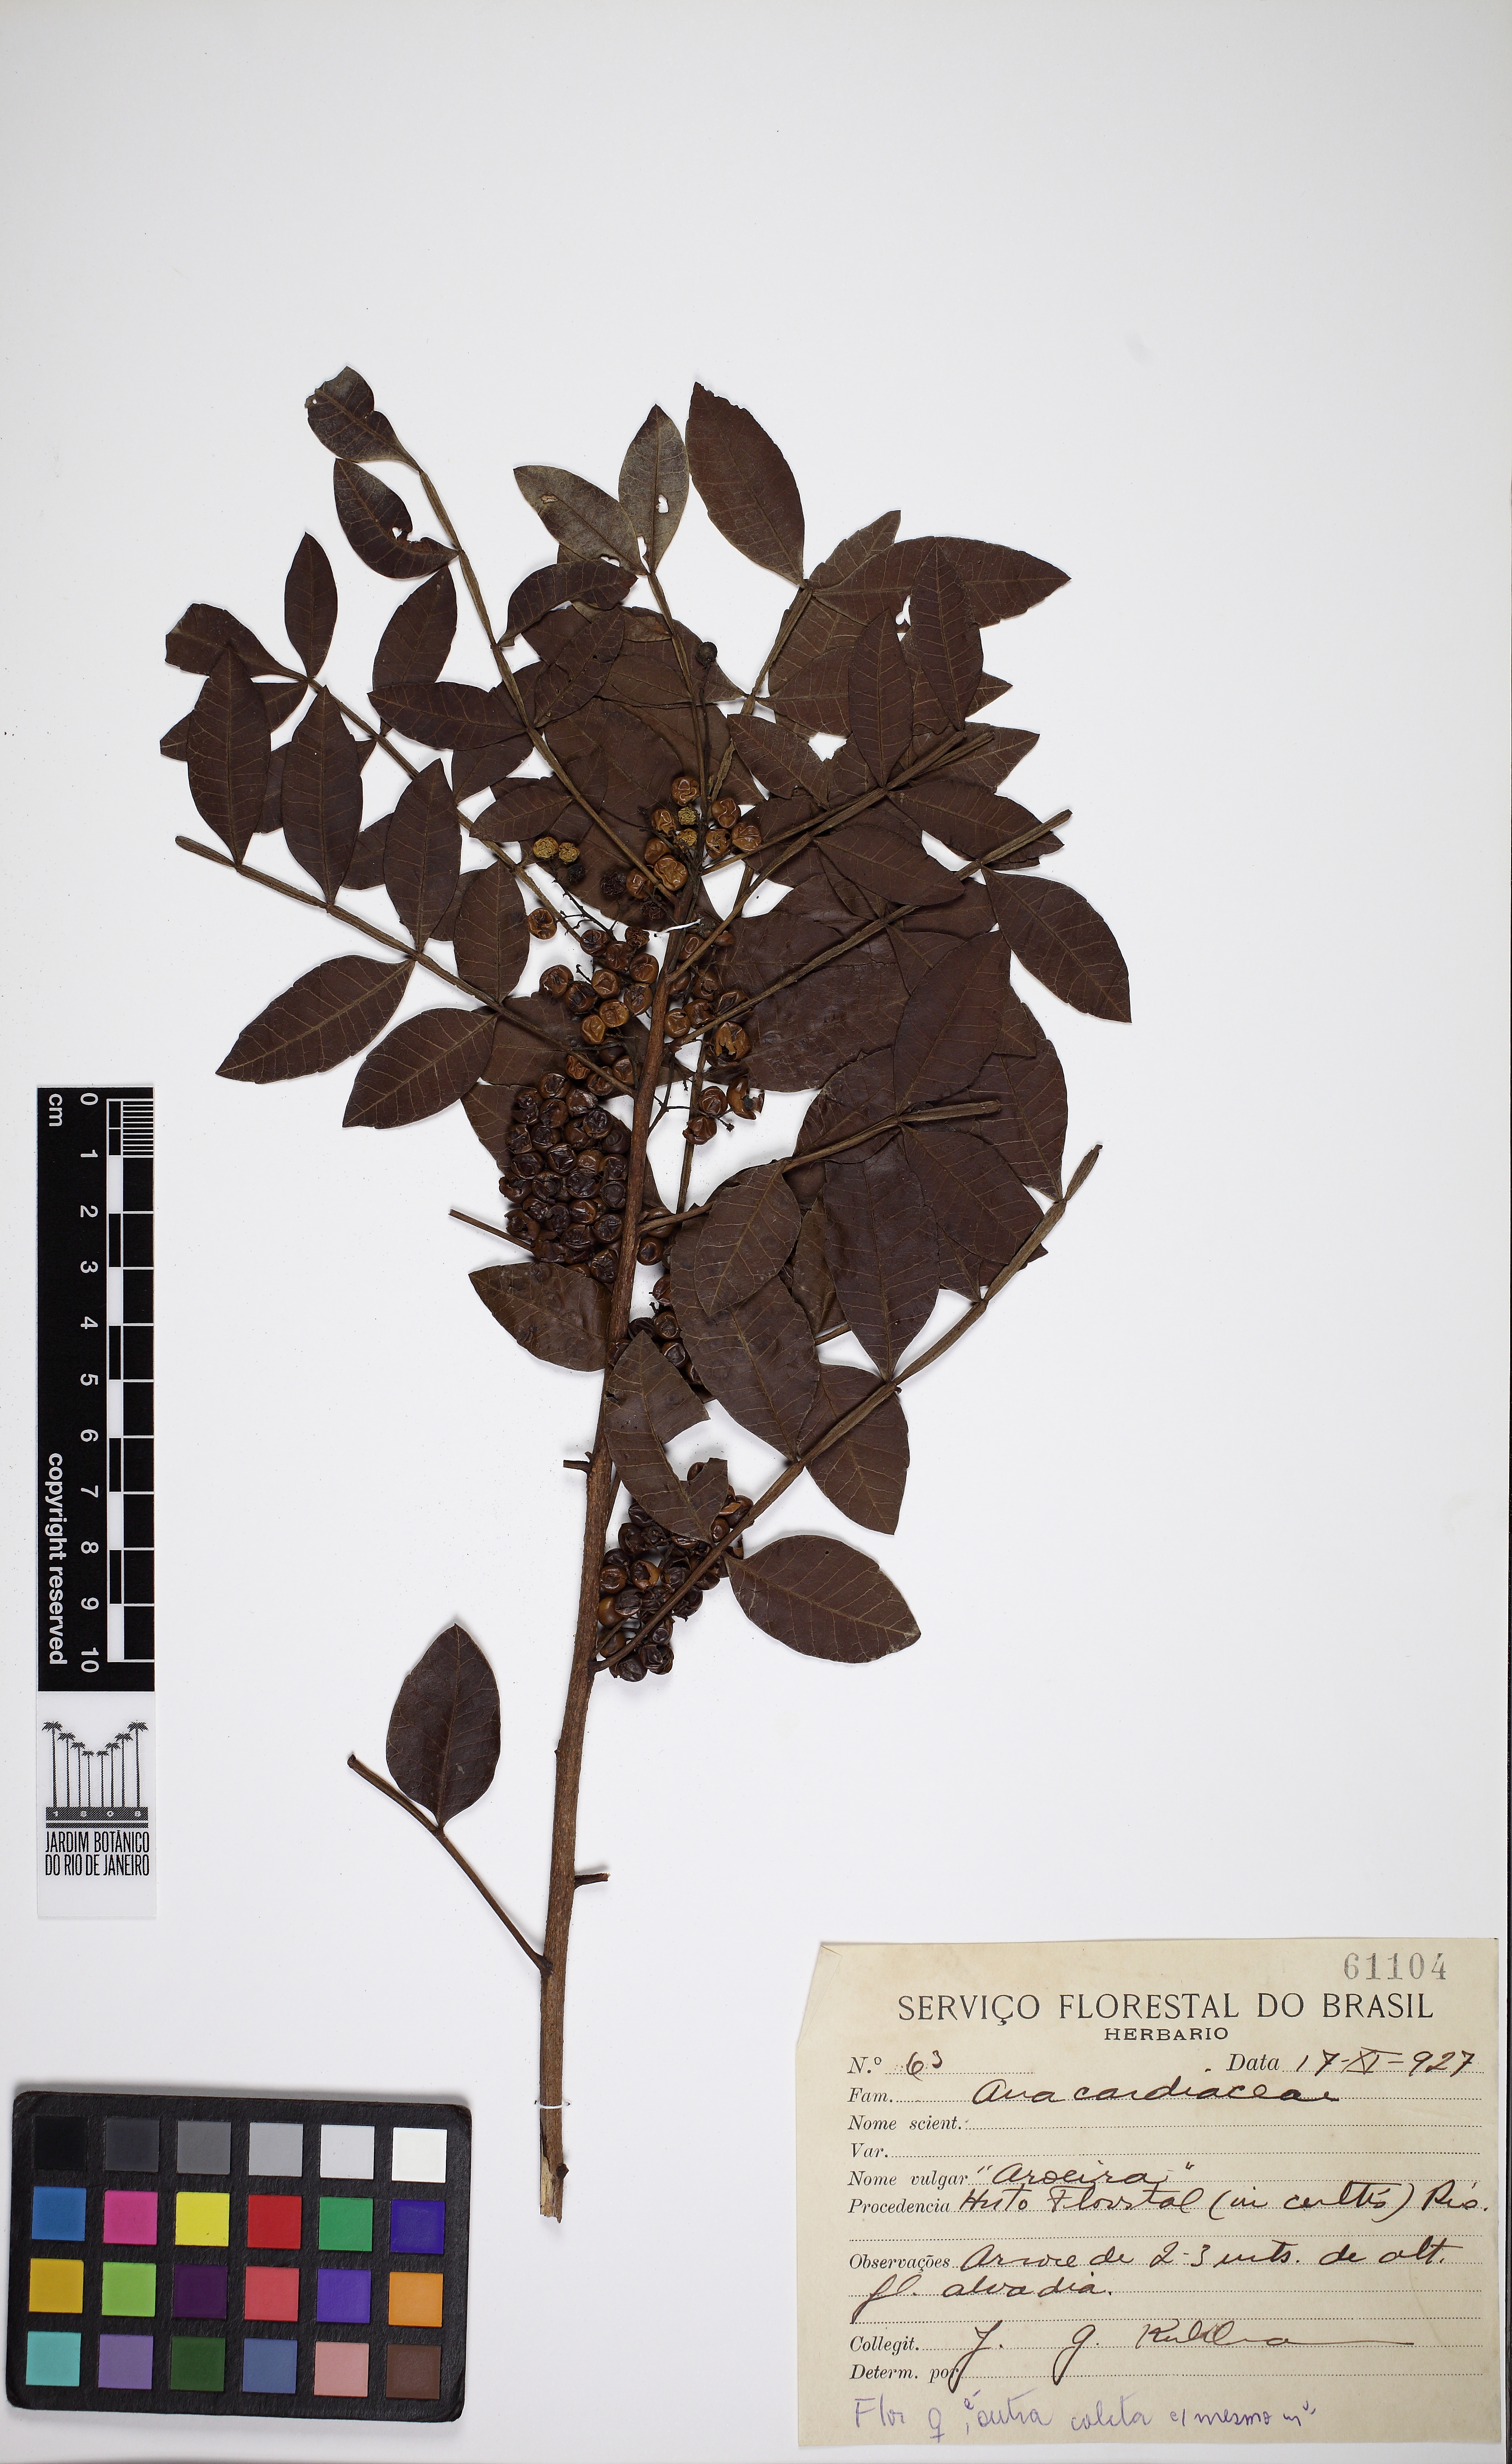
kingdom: Plantae
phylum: Tracheophyta
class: Magnoliopsida
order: Sapindales
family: Anacardiaceae
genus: Schinus
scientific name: Schinus terebinthifolia
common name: Brazilian peppertree
